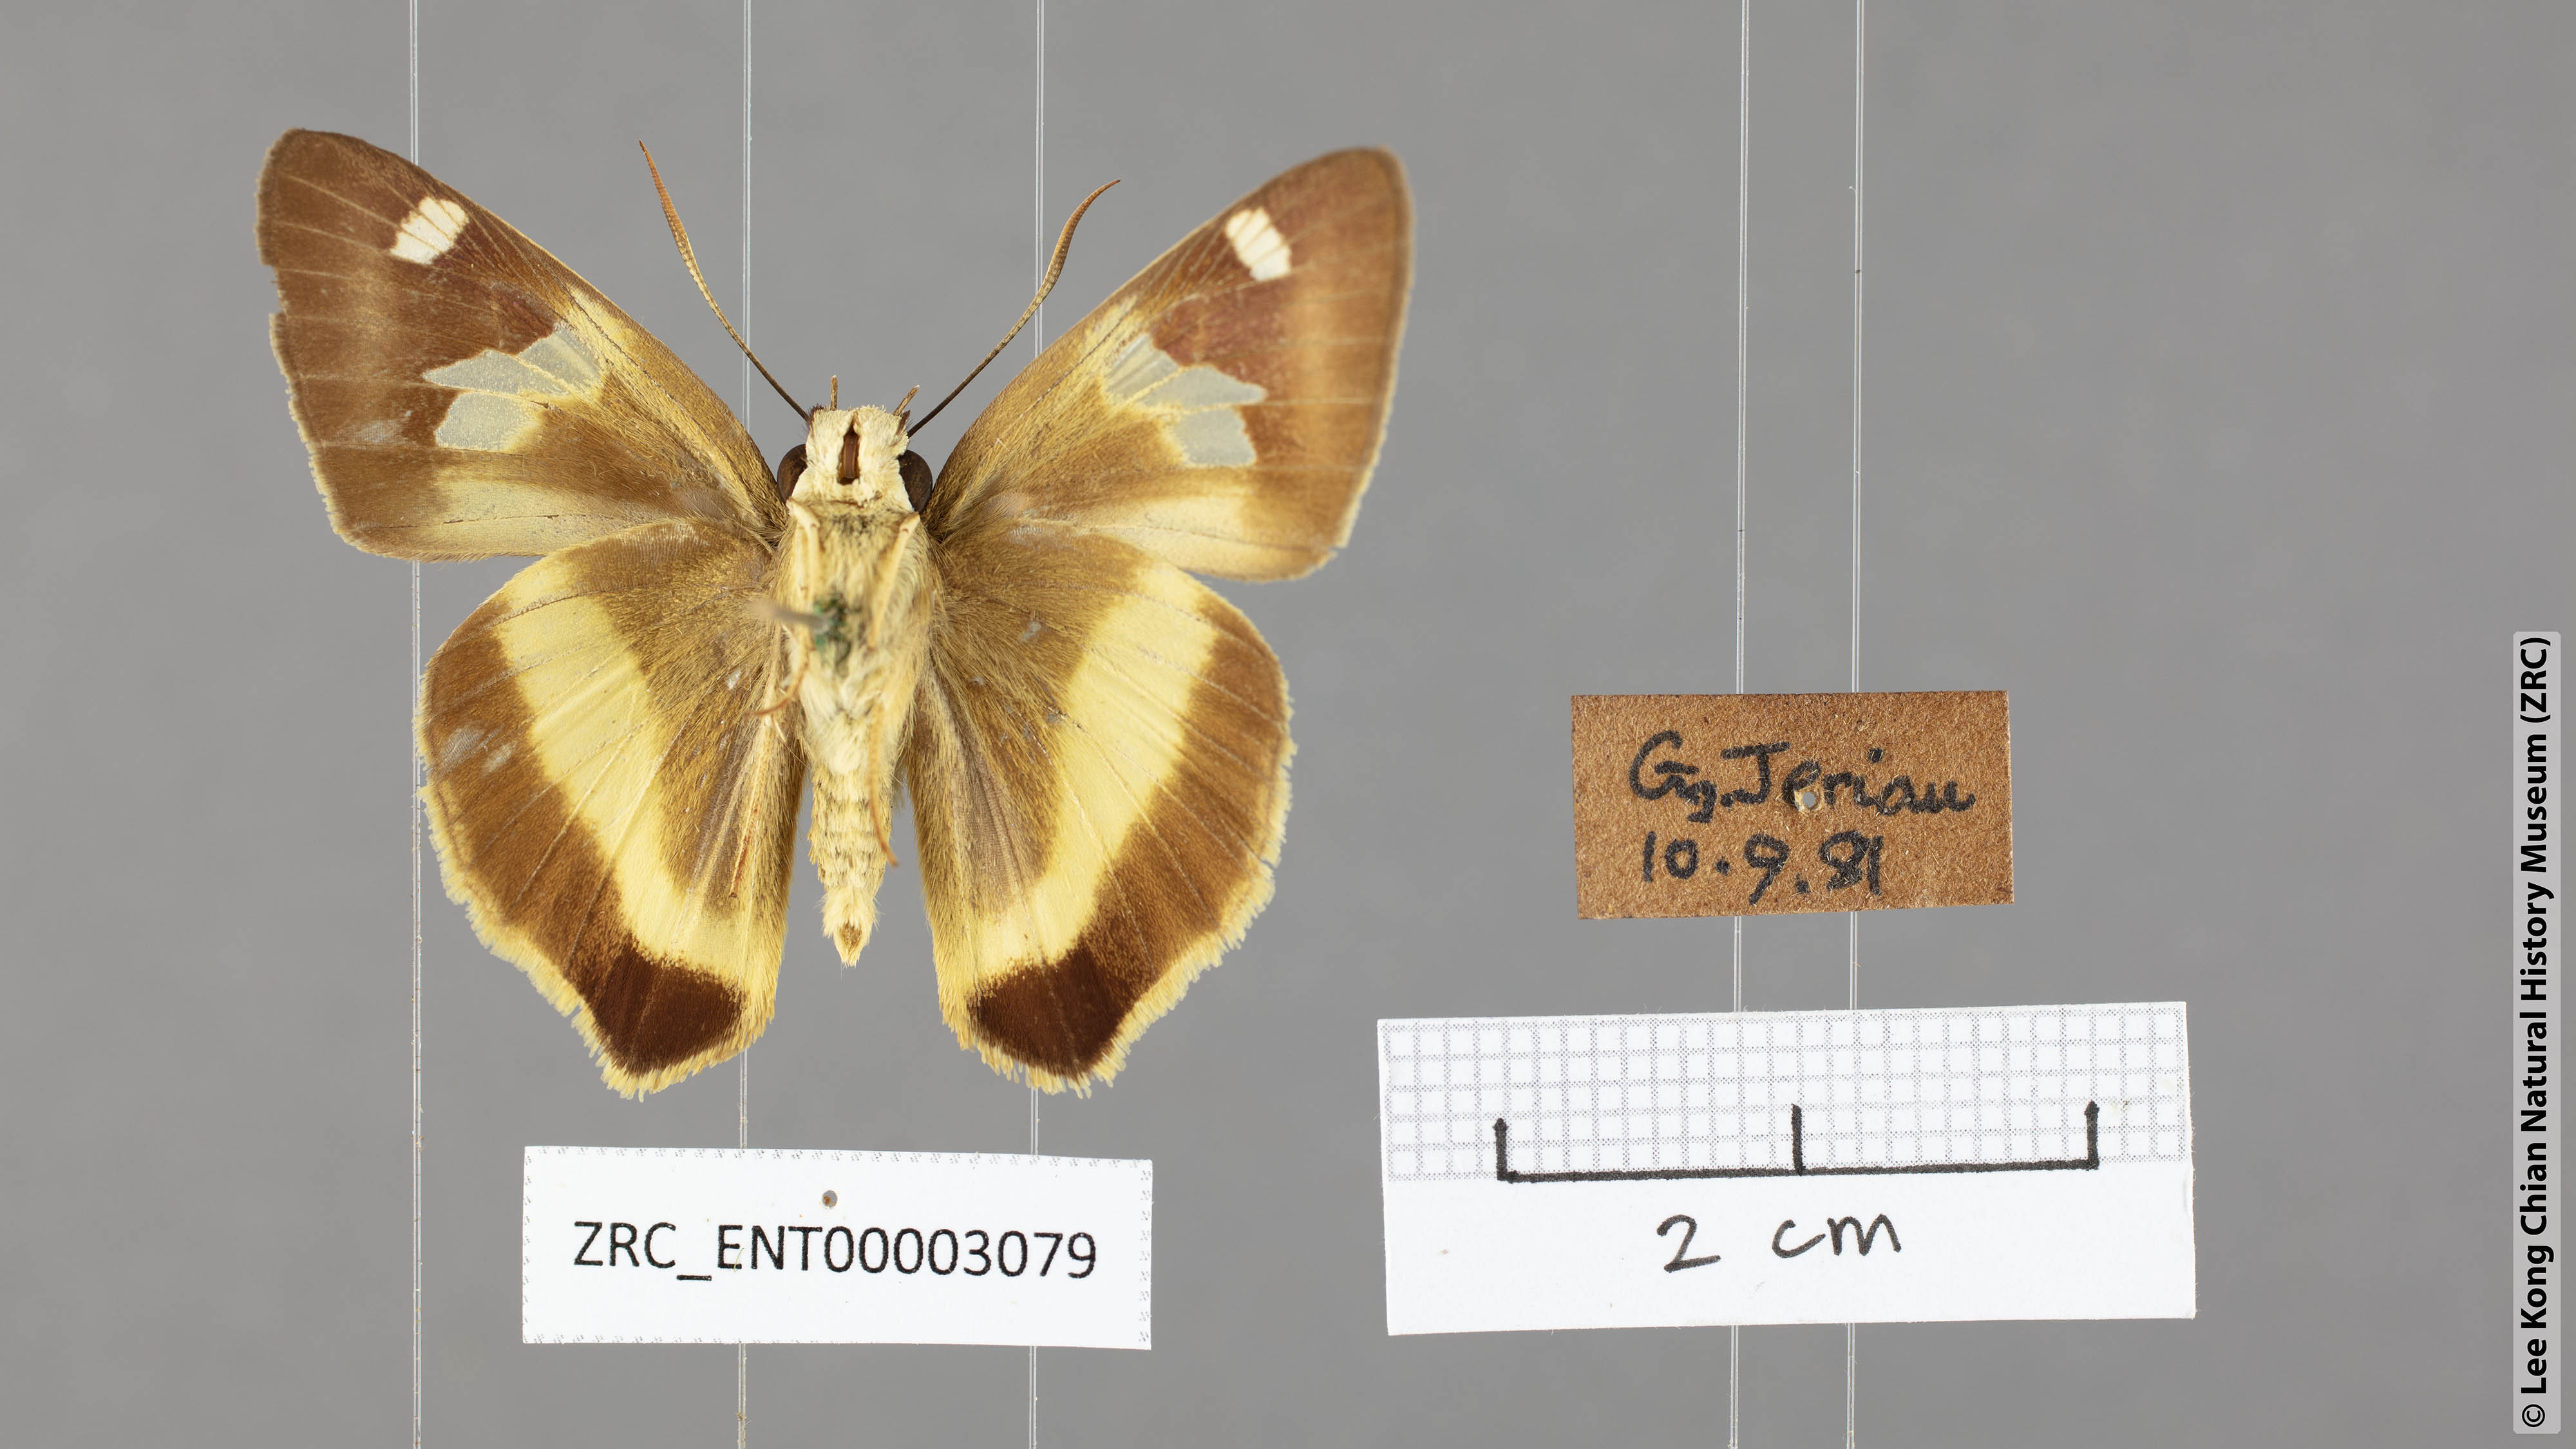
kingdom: Animalia
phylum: Arthropoda
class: Insecta
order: Lepidoptera
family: Hesperiidae
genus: Hasora
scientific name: Hasora schoenherr
